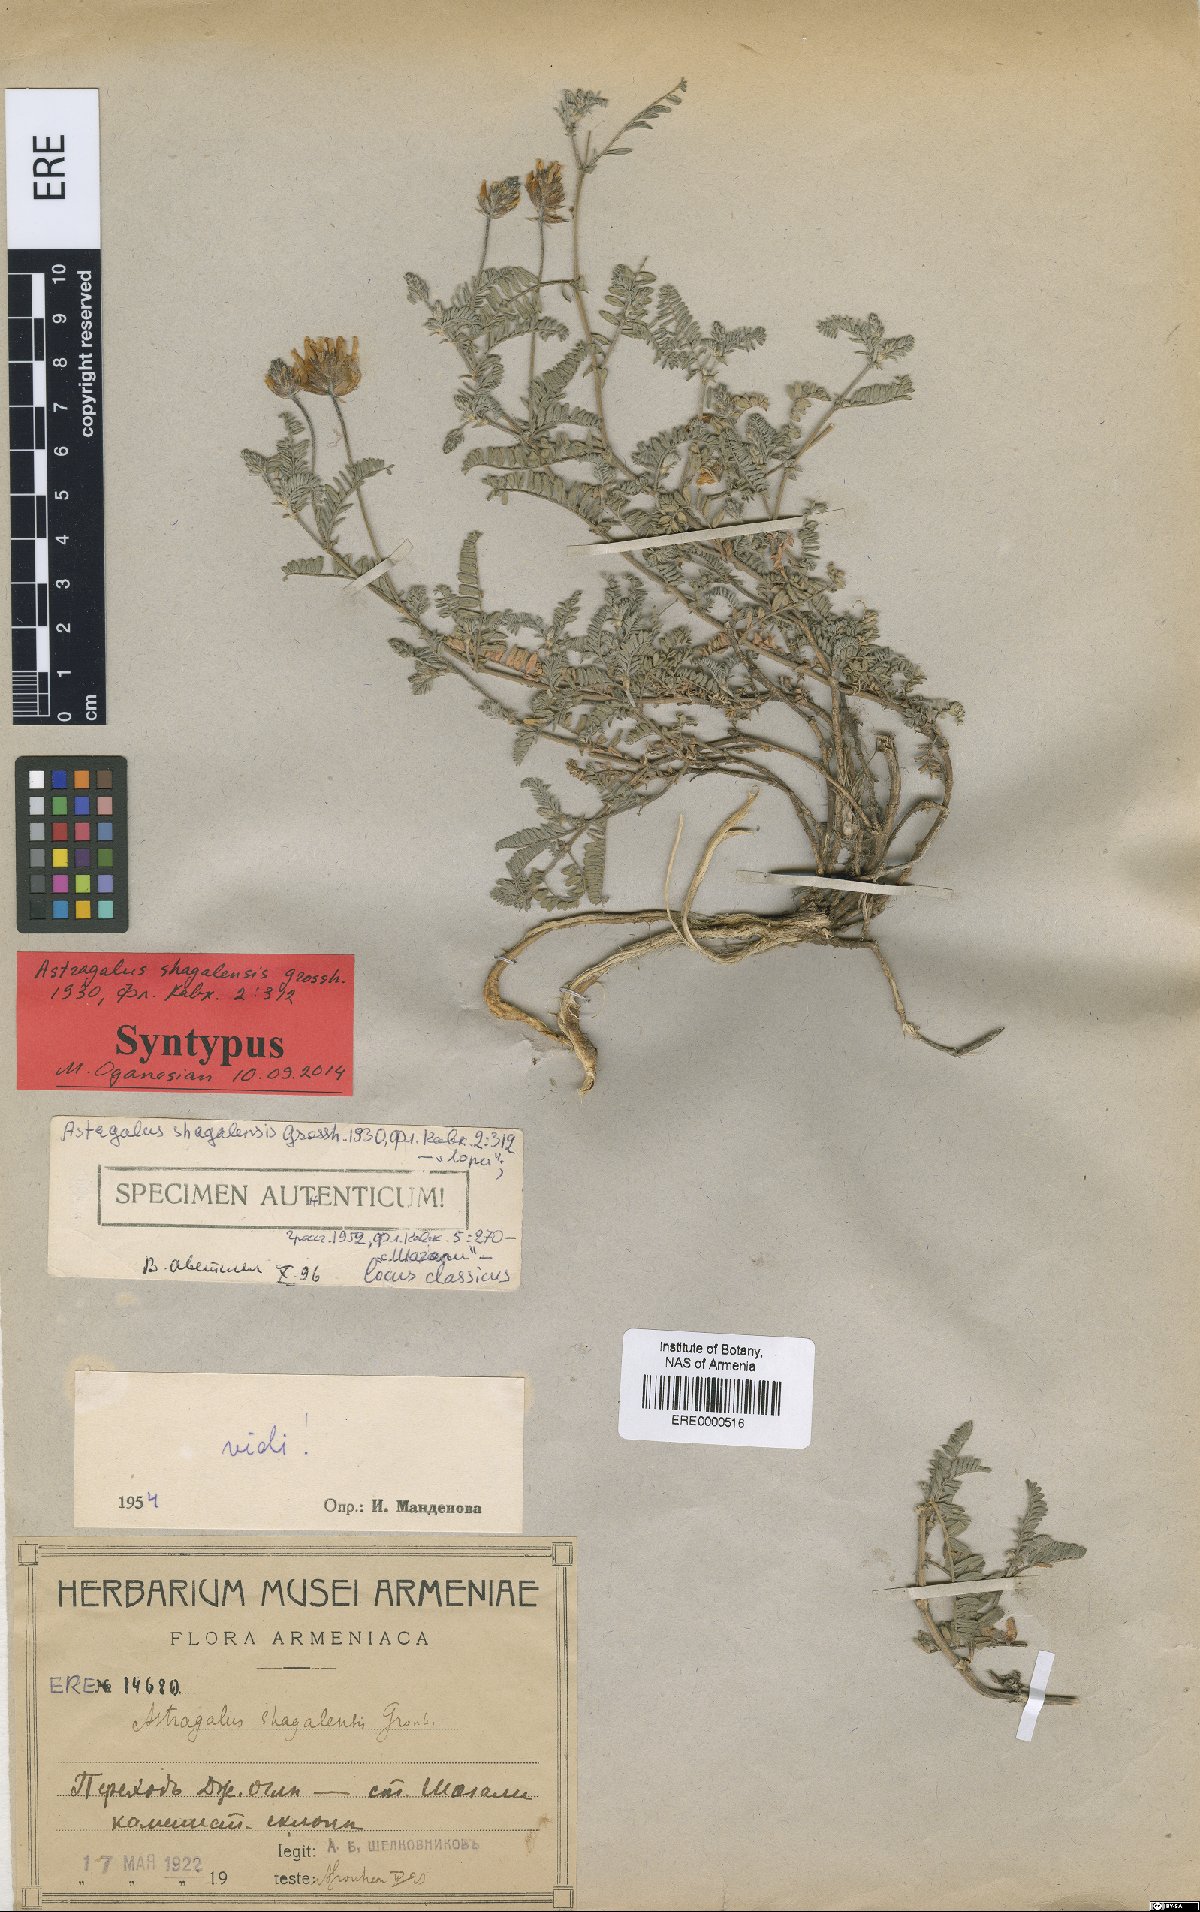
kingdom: Plantae
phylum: Tracheophyta
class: Magnoliopsida
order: Fabales
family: Fabaceae
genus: Astragalus
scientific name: Astragalus shagalensis
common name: Shagalian milk vetch
